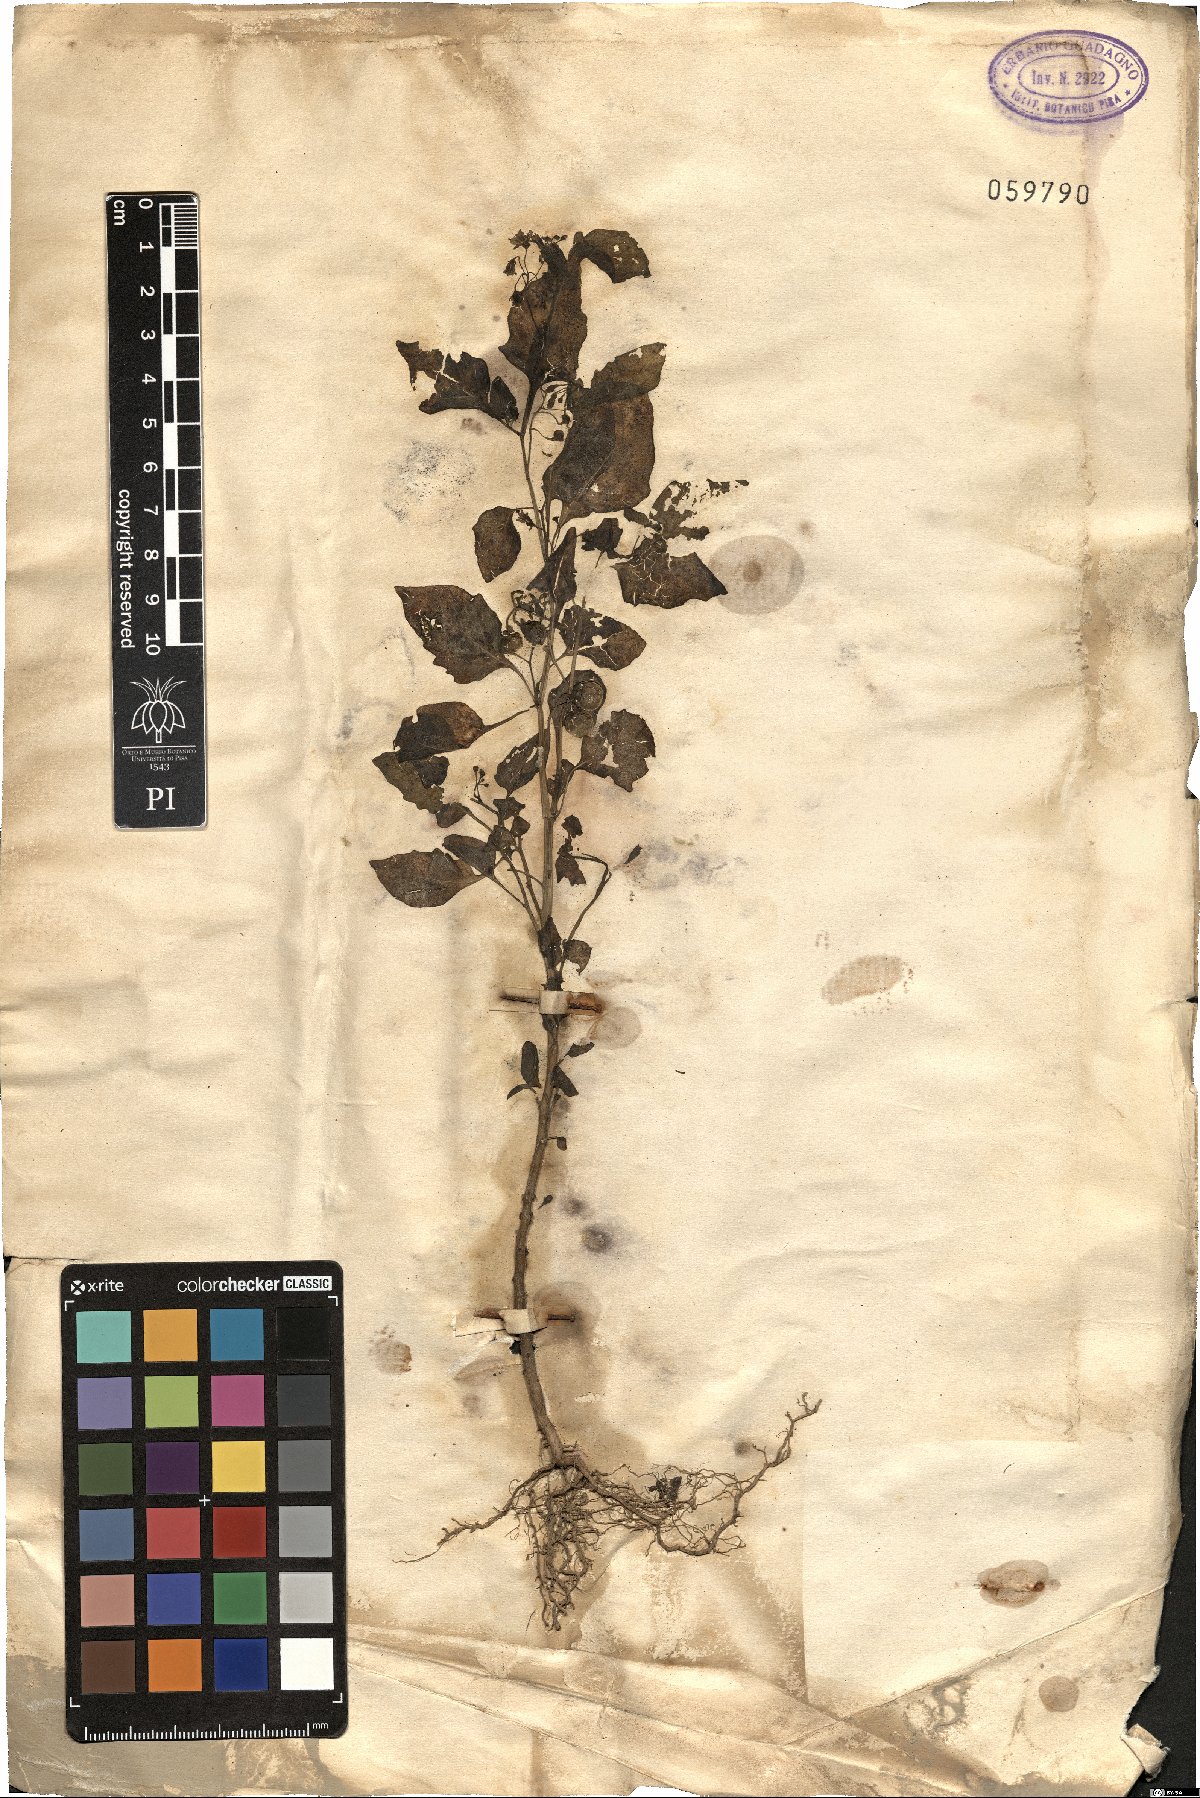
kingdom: Plantae
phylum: Tracheophyta
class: Magnoliopsida
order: Solanales
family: Solanaceae
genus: Solanum
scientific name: Solanum
